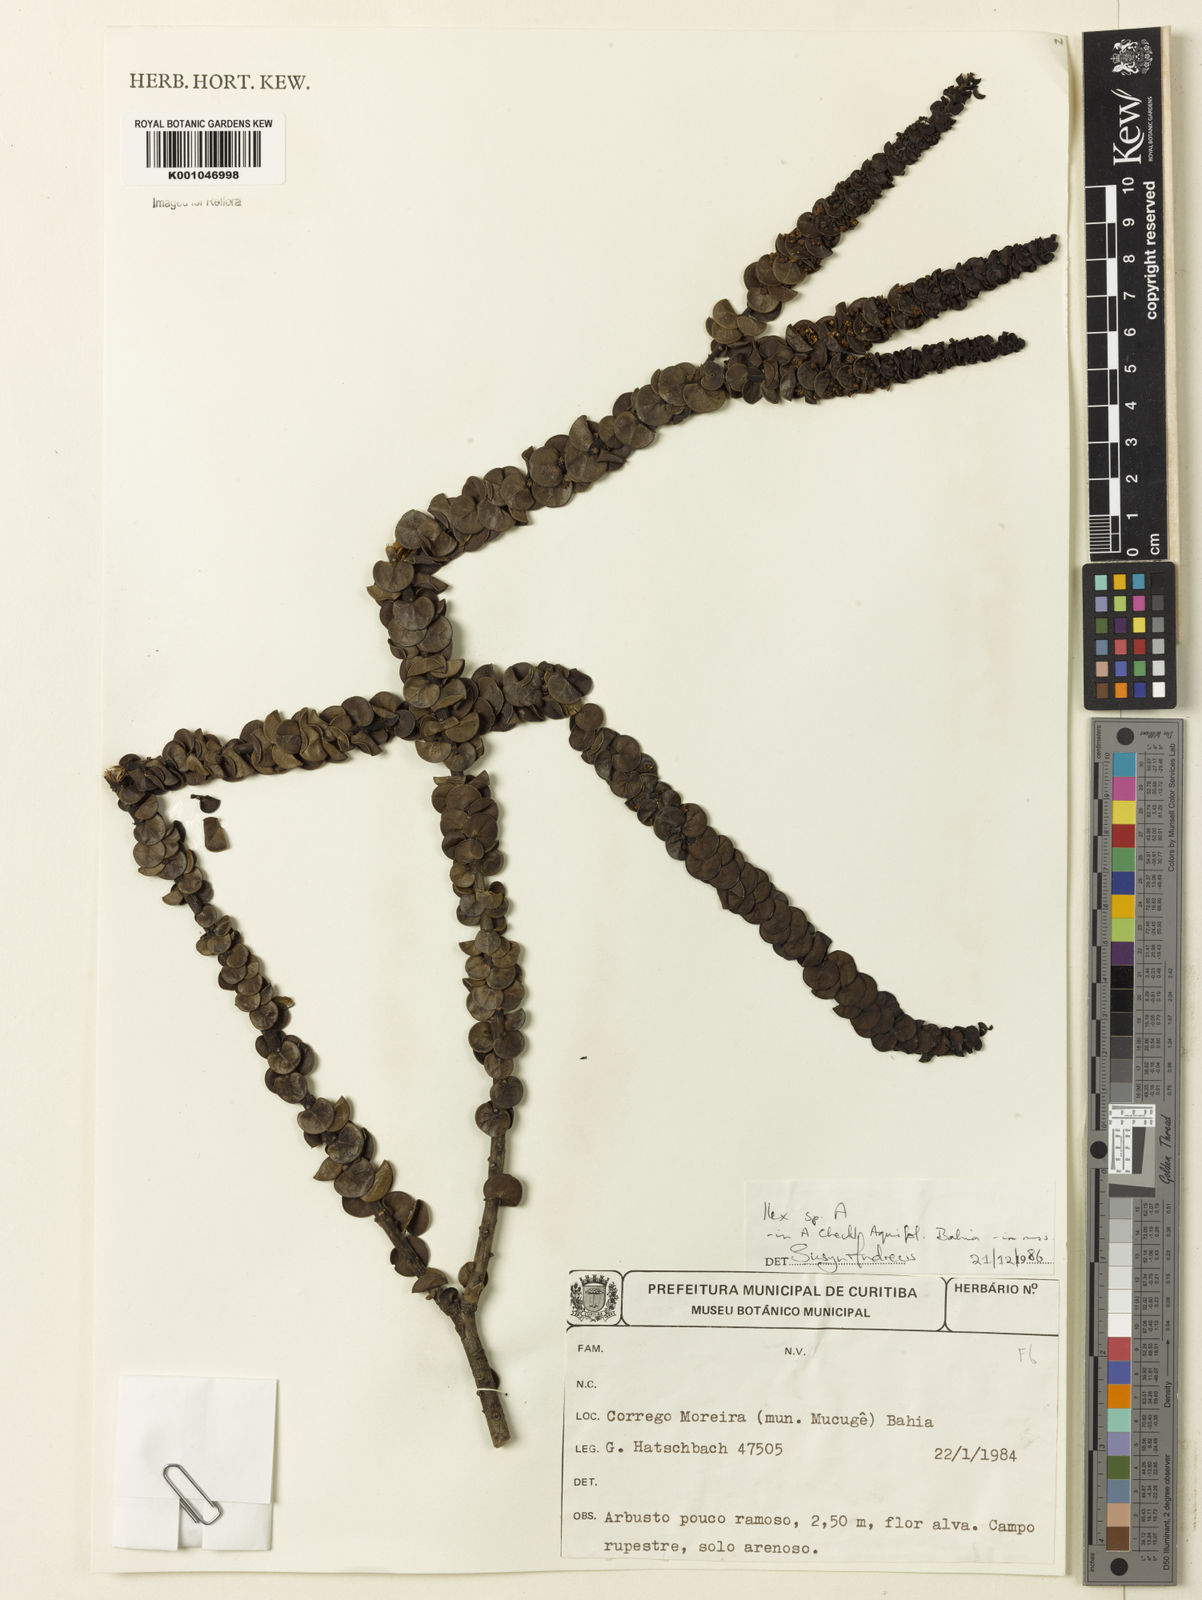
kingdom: Plantae
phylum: Tracheophyta
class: Magnoliopsida
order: Aquifoliales
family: Aquifoliaceae
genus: Ilex
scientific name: Ilex
